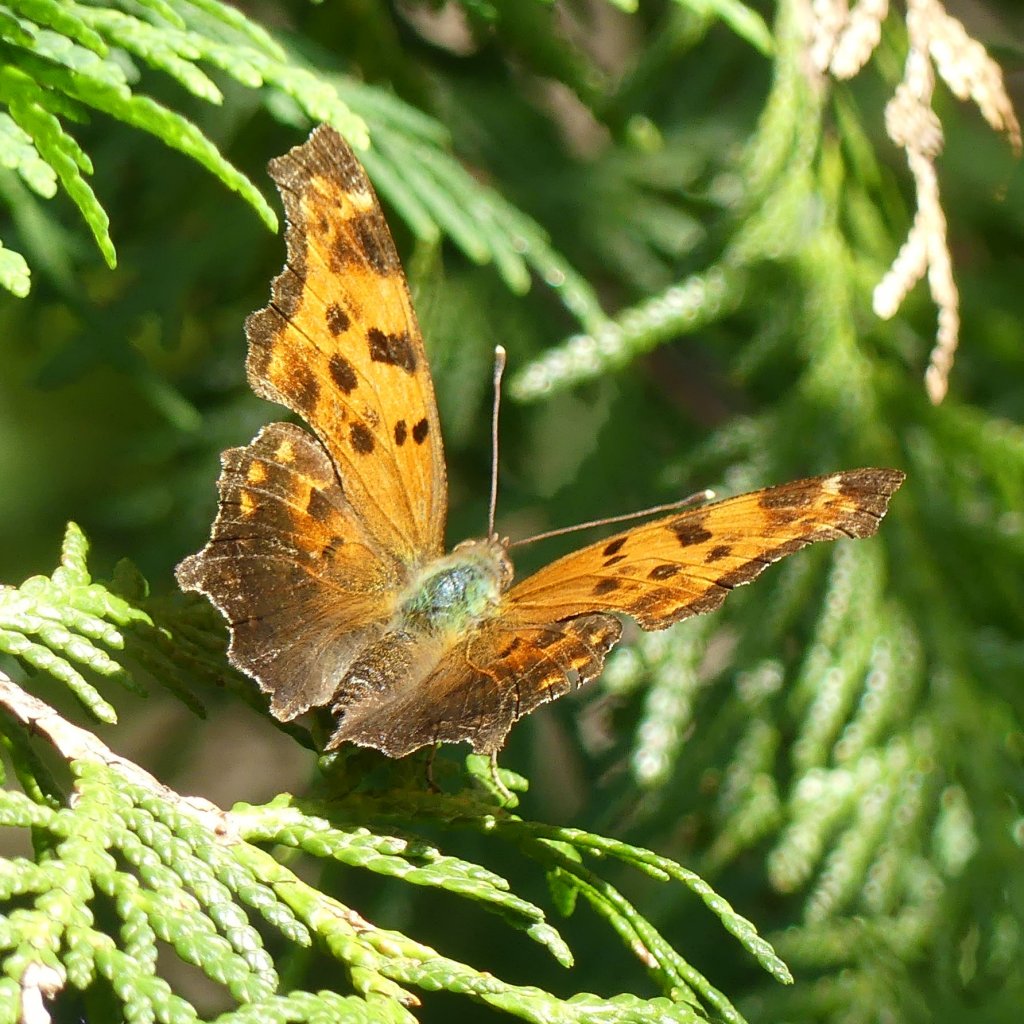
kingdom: Animalia
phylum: Arthropoda
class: Insecta
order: Lepidoptera
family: Nymphalidae
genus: Polygonia
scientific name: Polygonia comma
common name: Eastern Comma
